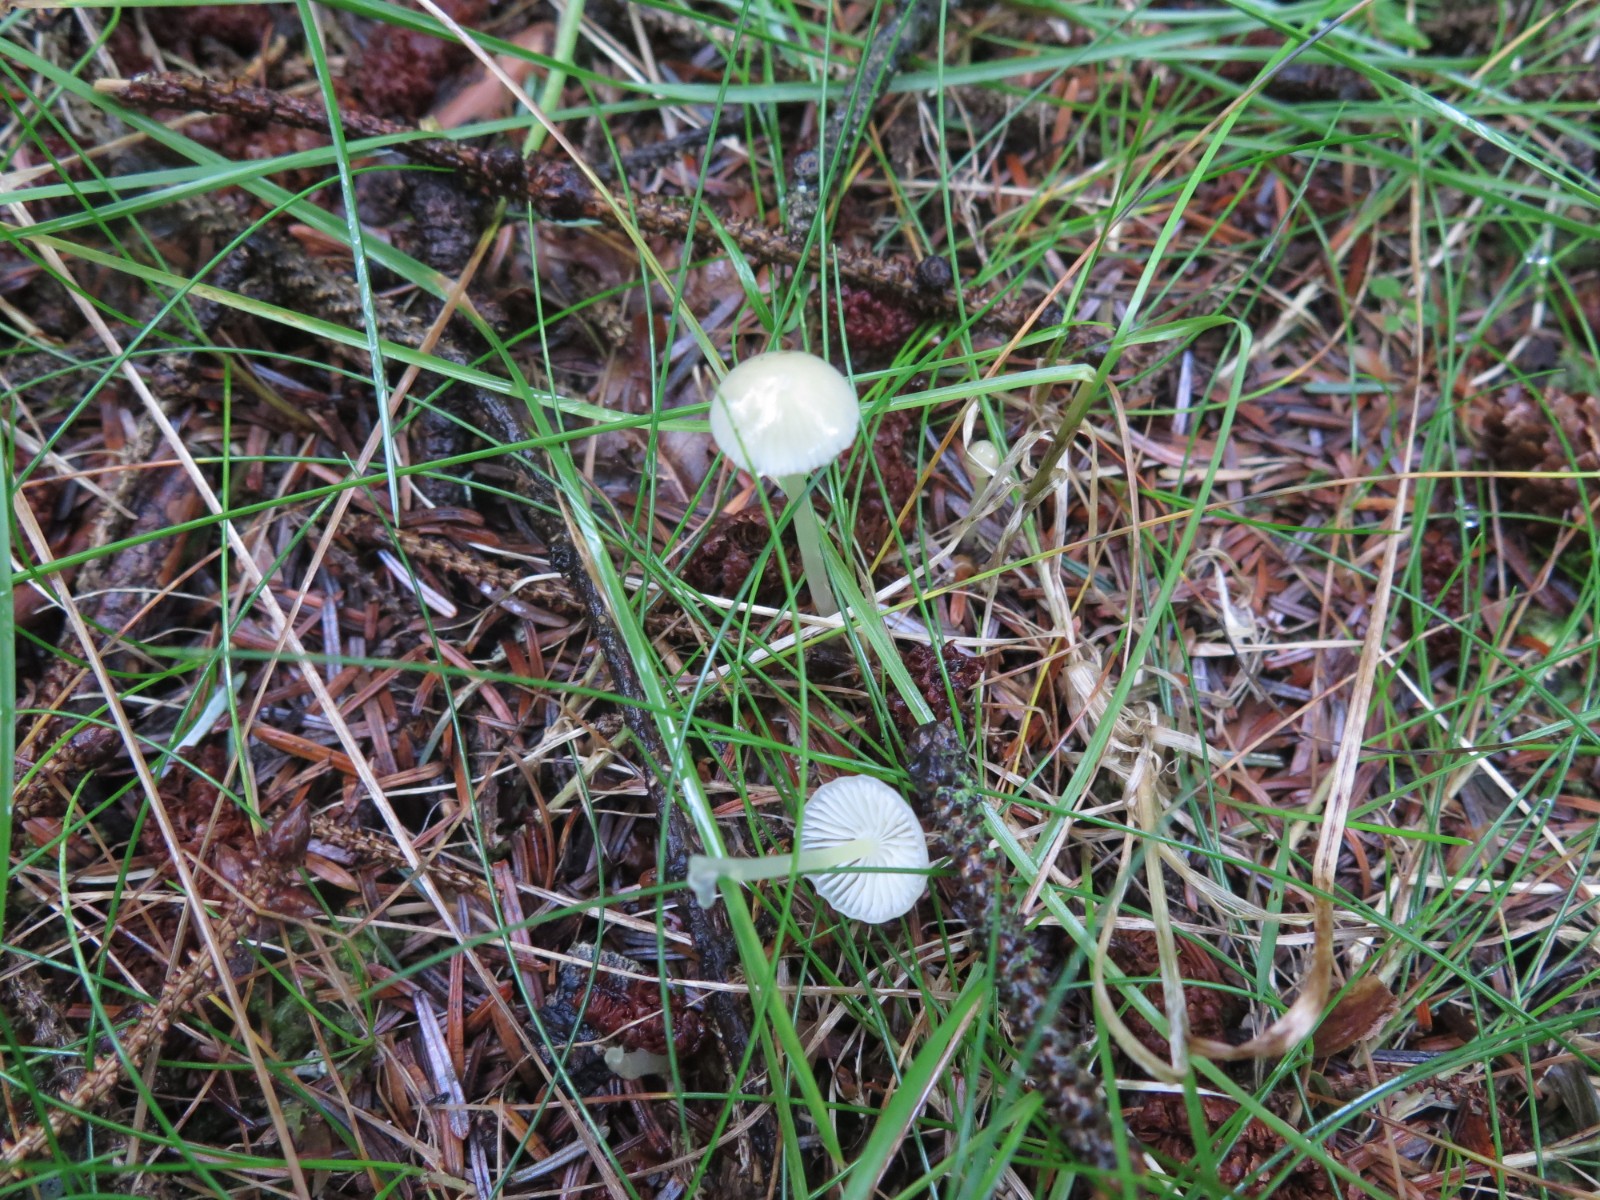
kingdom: Fungi
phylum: Basidiomycota
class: Agaricomycetes
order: Agaricales
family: Mycenaceae
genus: Mycena
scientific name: Mycena epipterygia
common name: gulstokket huesvamp
